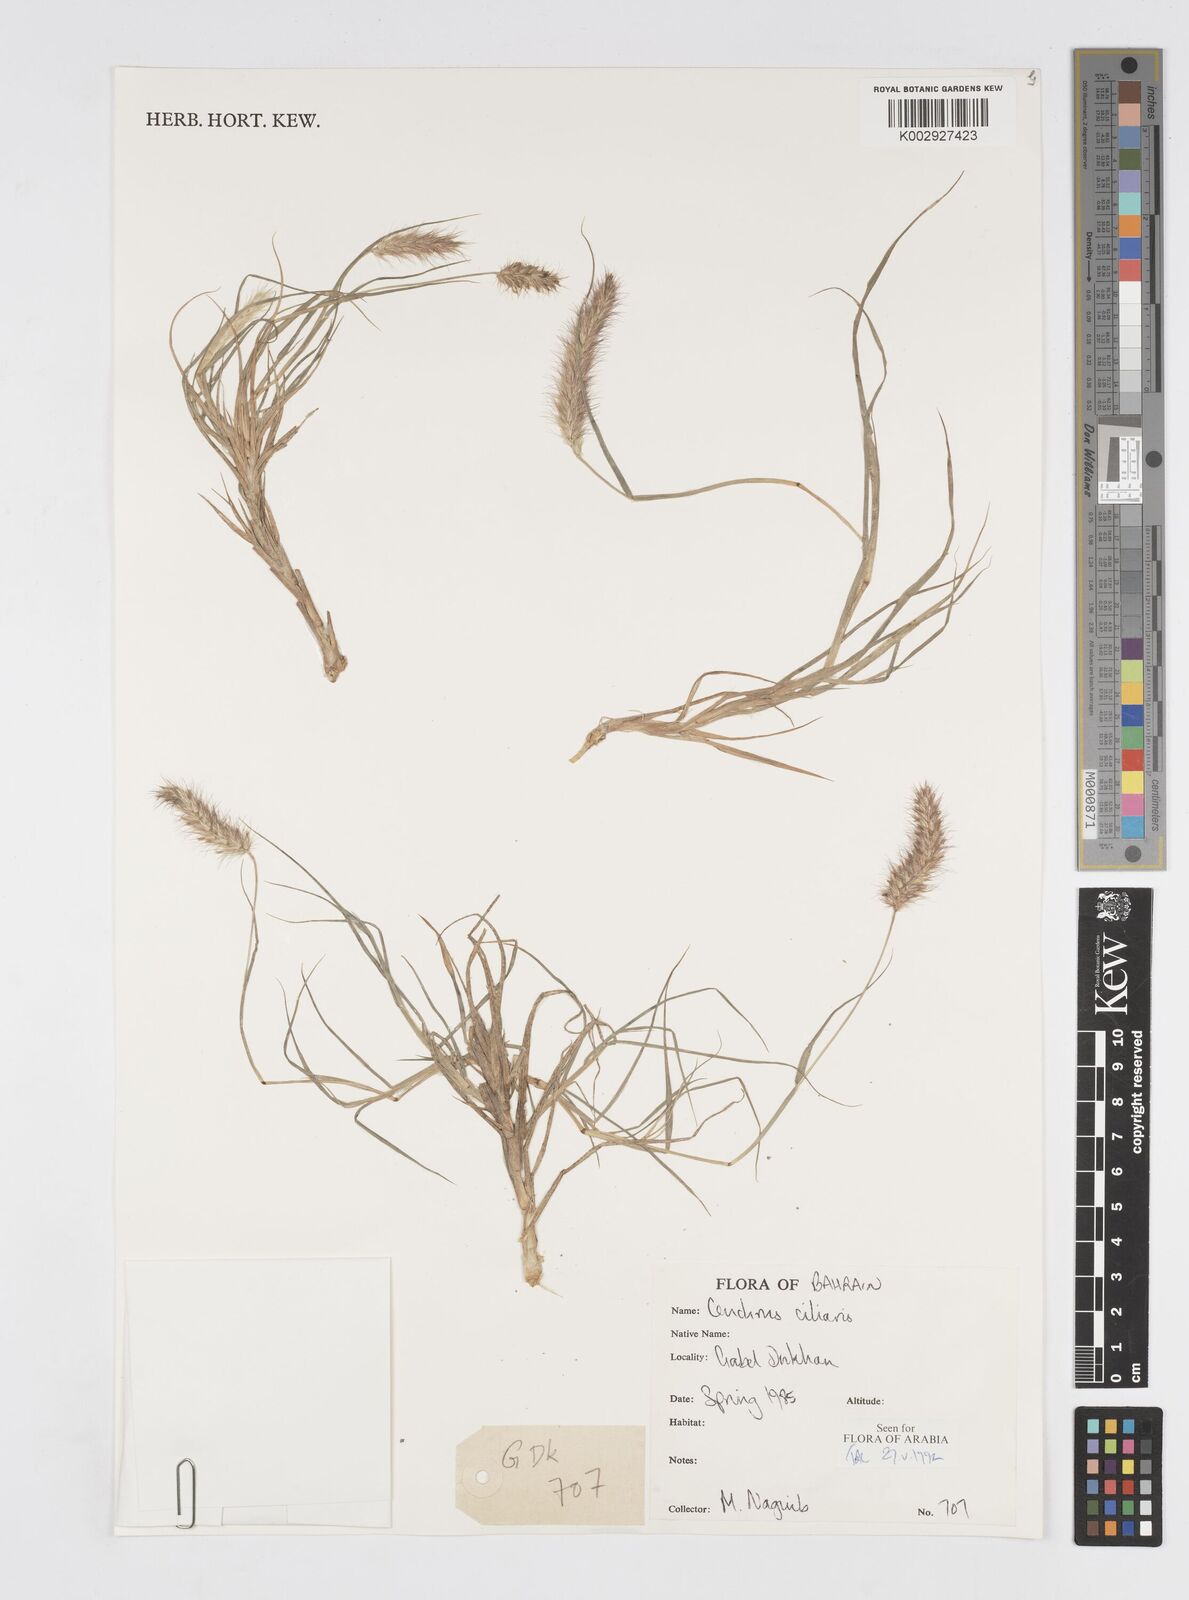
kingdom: Plantae
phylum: Tracheophyta
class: Liliopsida
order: Poales
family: Poaceae
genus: Cenchrus
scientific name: Cenchrus
